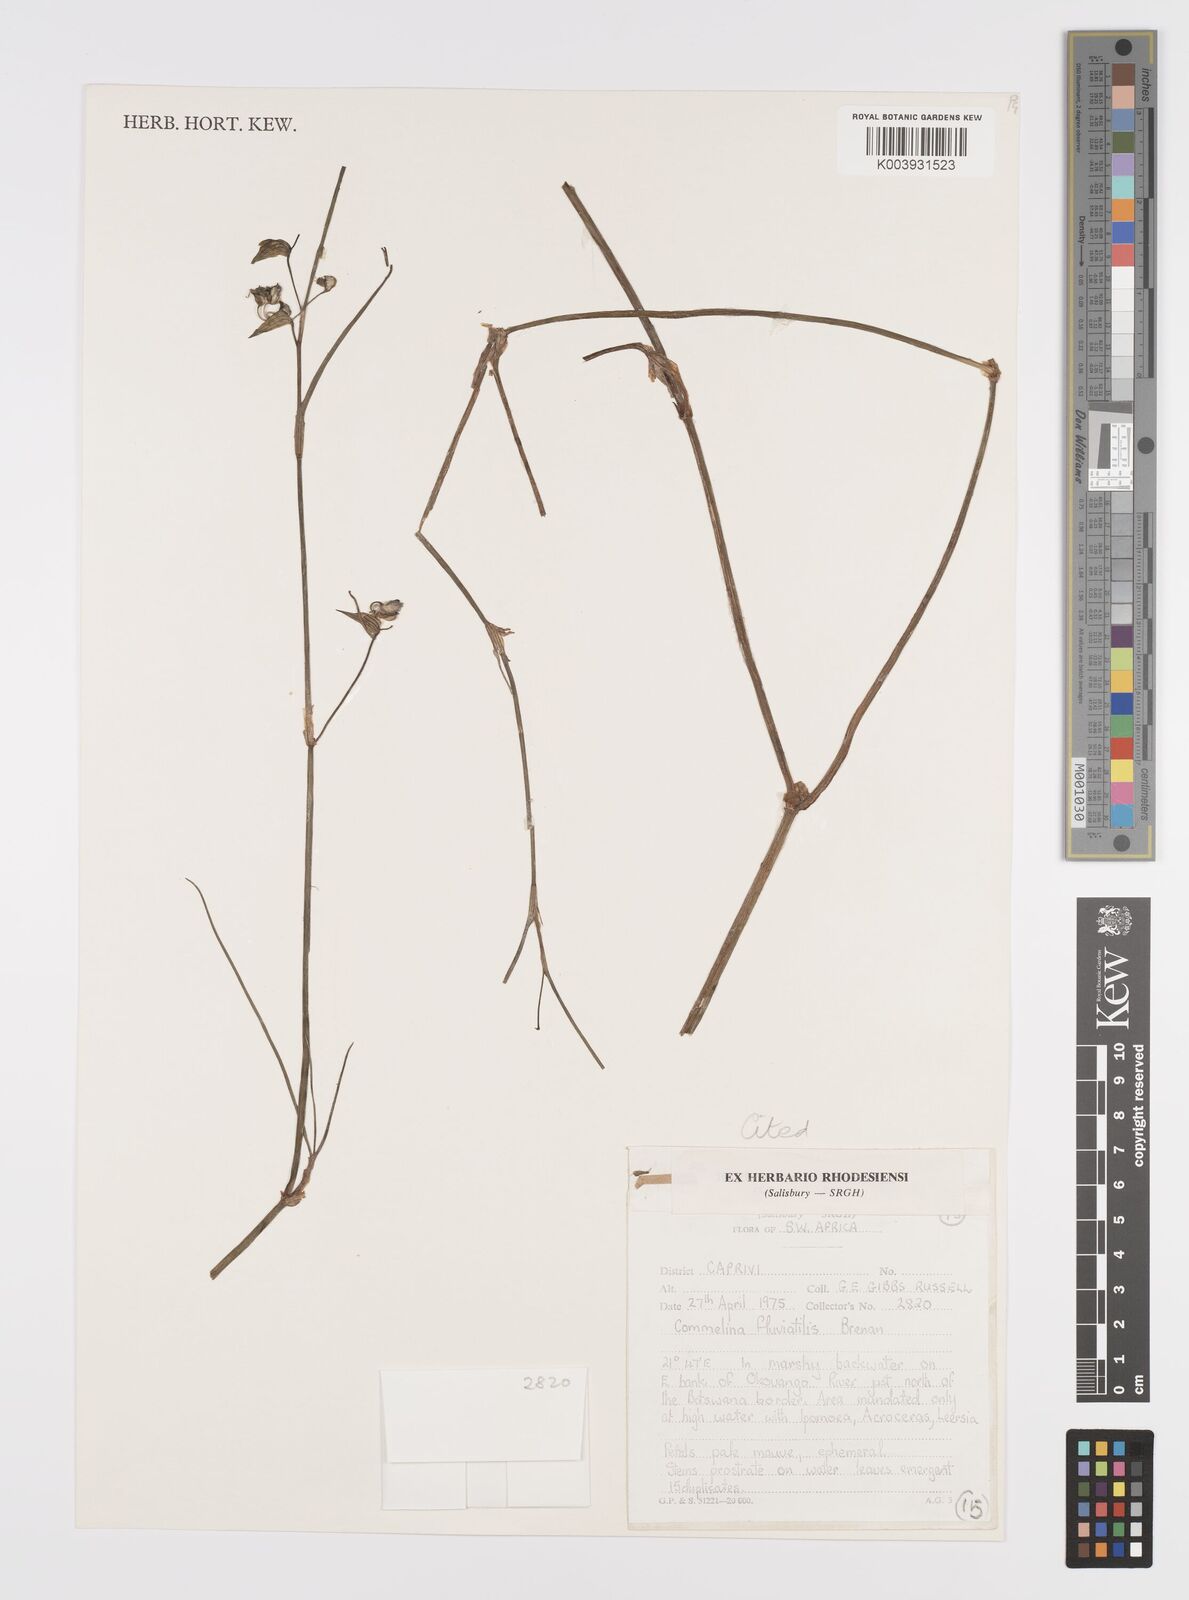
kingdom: Plantae
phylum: Tracheophyta
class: Liliopsida
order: Commelinales
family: Commelinaceae
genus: Commelina
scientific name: Commelina fluviatilis
